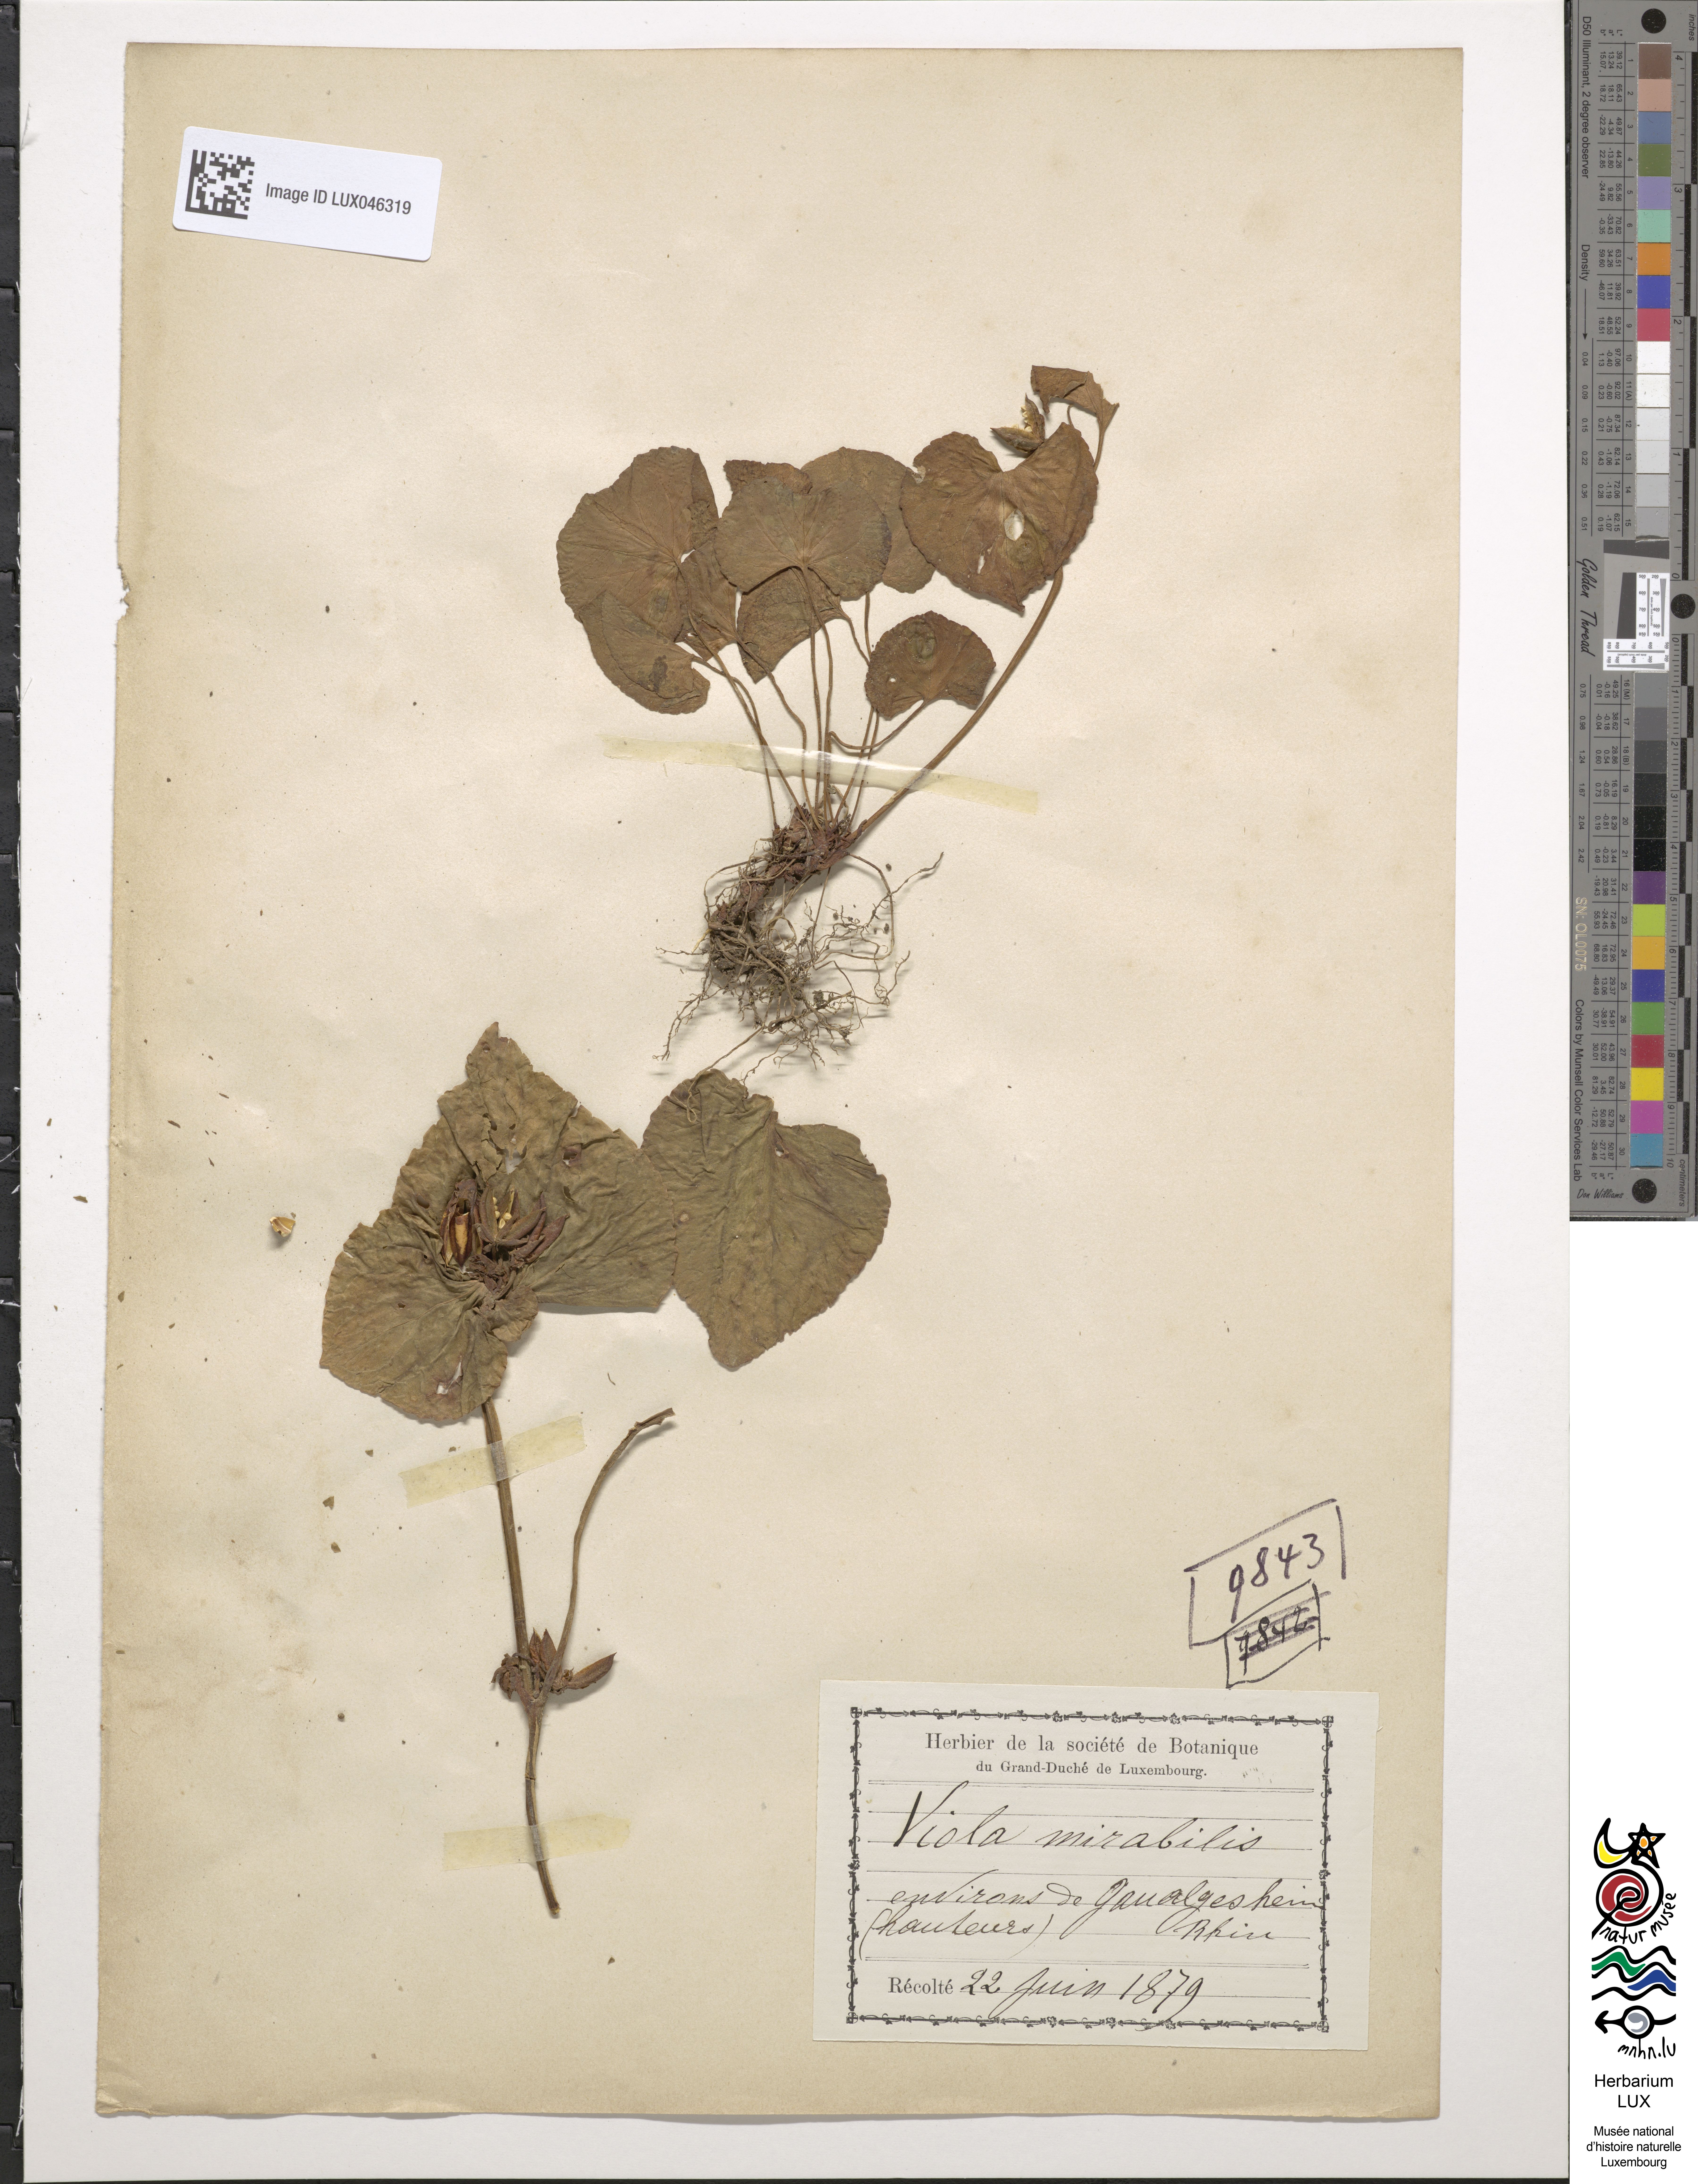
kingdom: Plantae
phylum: Tracheophyta
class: Magnoliopsida
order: Malpighiales
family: Violaceae
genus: Viola
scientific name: Viola mirabilis
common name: Wonder violet
